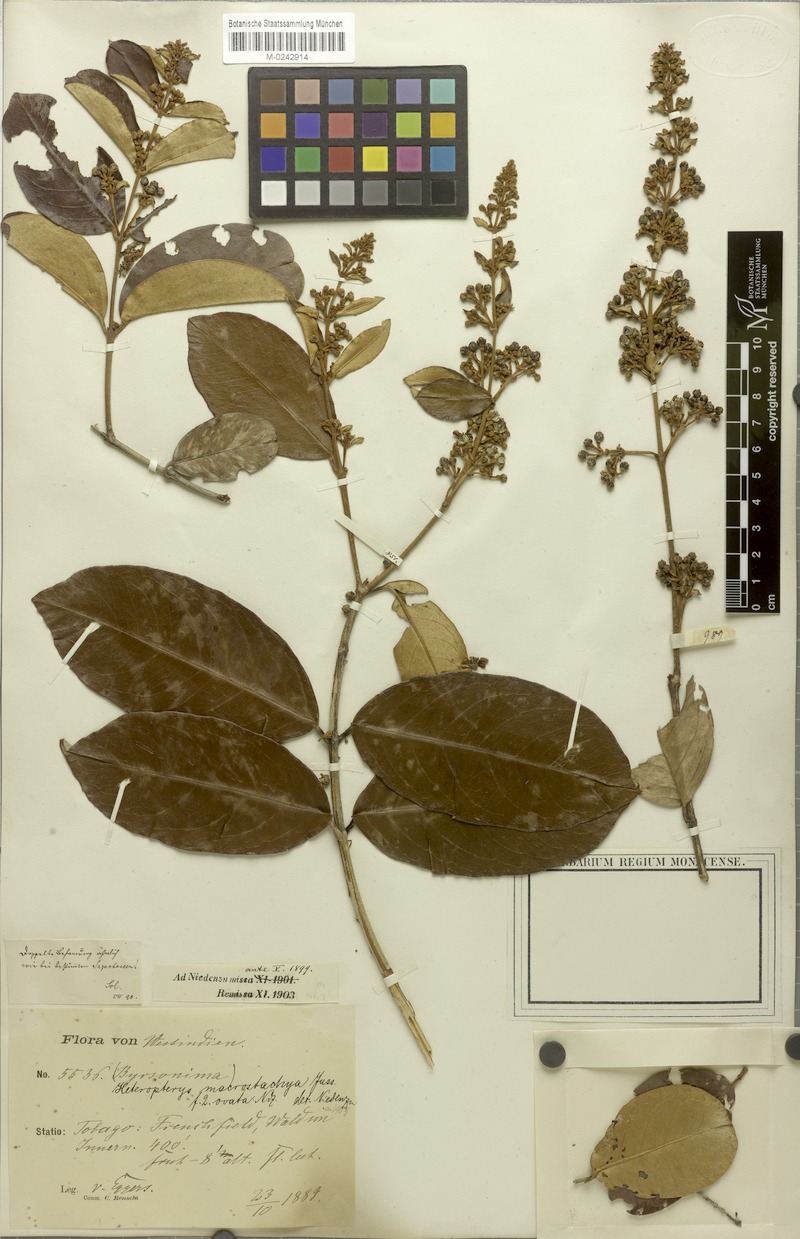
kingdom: Plantae
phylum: Tracheophyta
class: Magnoliopsida
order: Malpighiales
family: Malpighiaceae
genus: Heteropterys
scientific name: Heteropterys macrostachya
